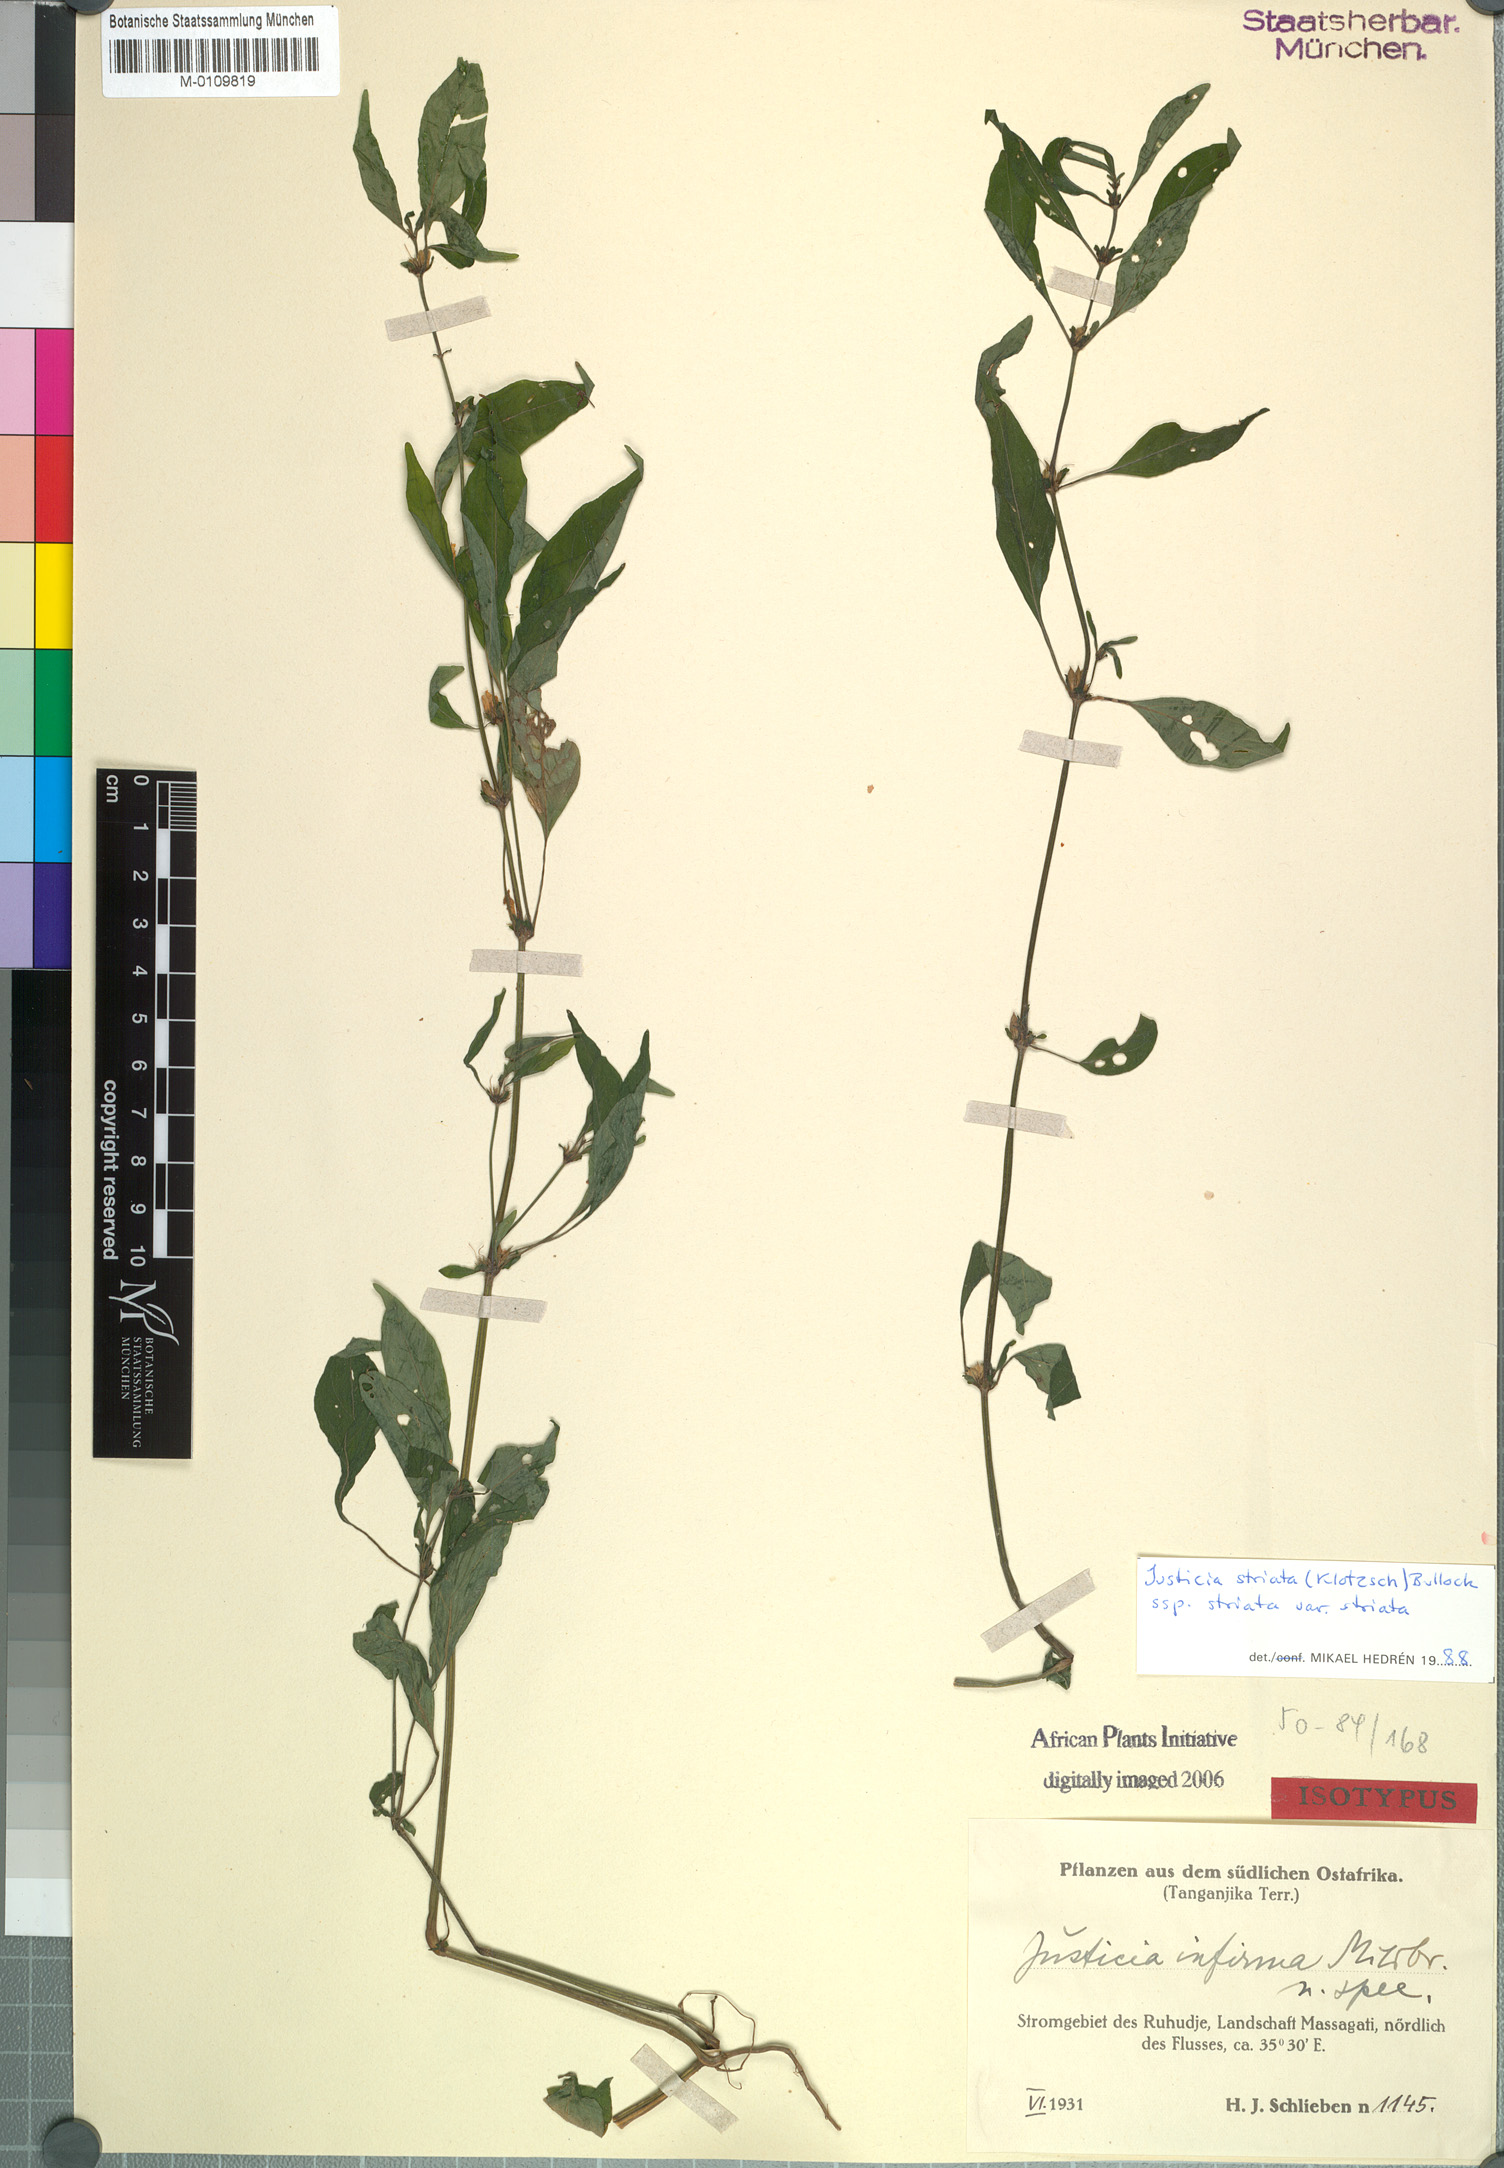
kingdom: Plantae
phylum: Tracheophyta
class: Magnoliopsida
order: Lamiales
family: Acanthaceae
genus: Justicia
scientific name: Justicia striata
